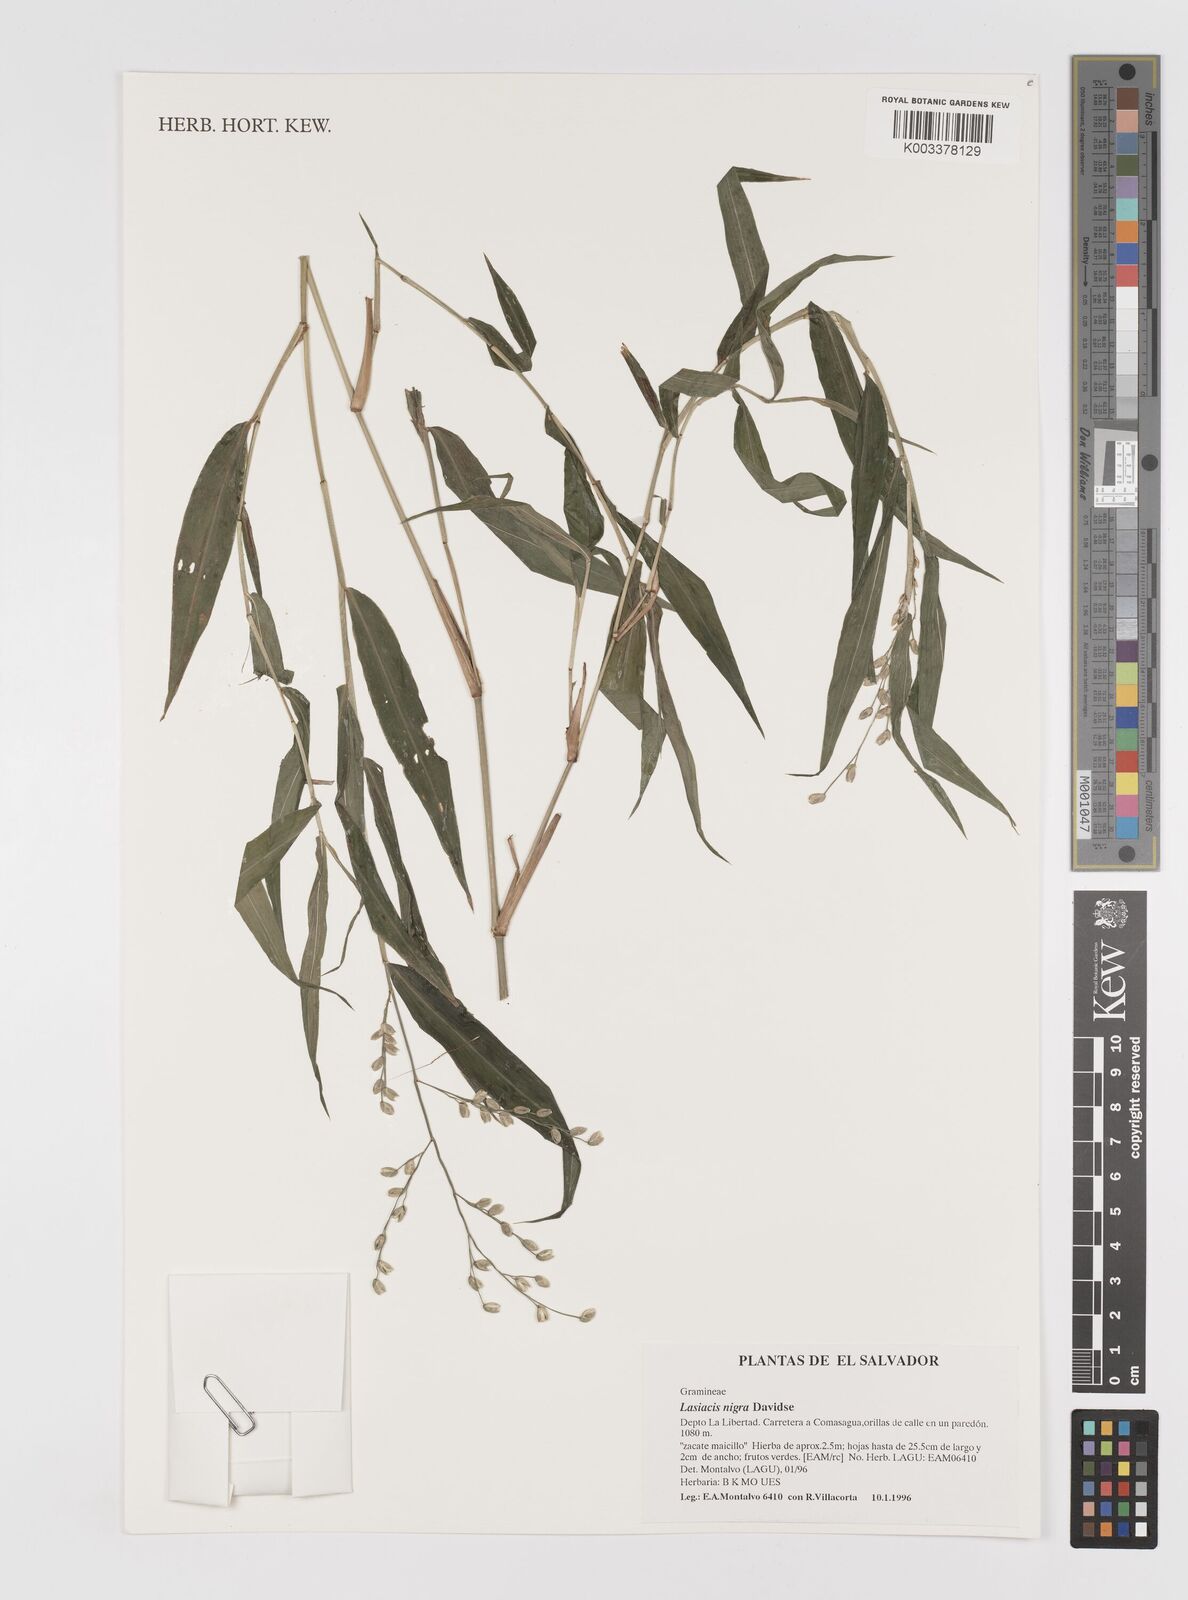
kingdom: Plantae
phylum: Tracheophyta
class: Liliopsida
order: Poales
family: Poaceae
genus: Lasiacis
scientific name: Lasiacis nigra
